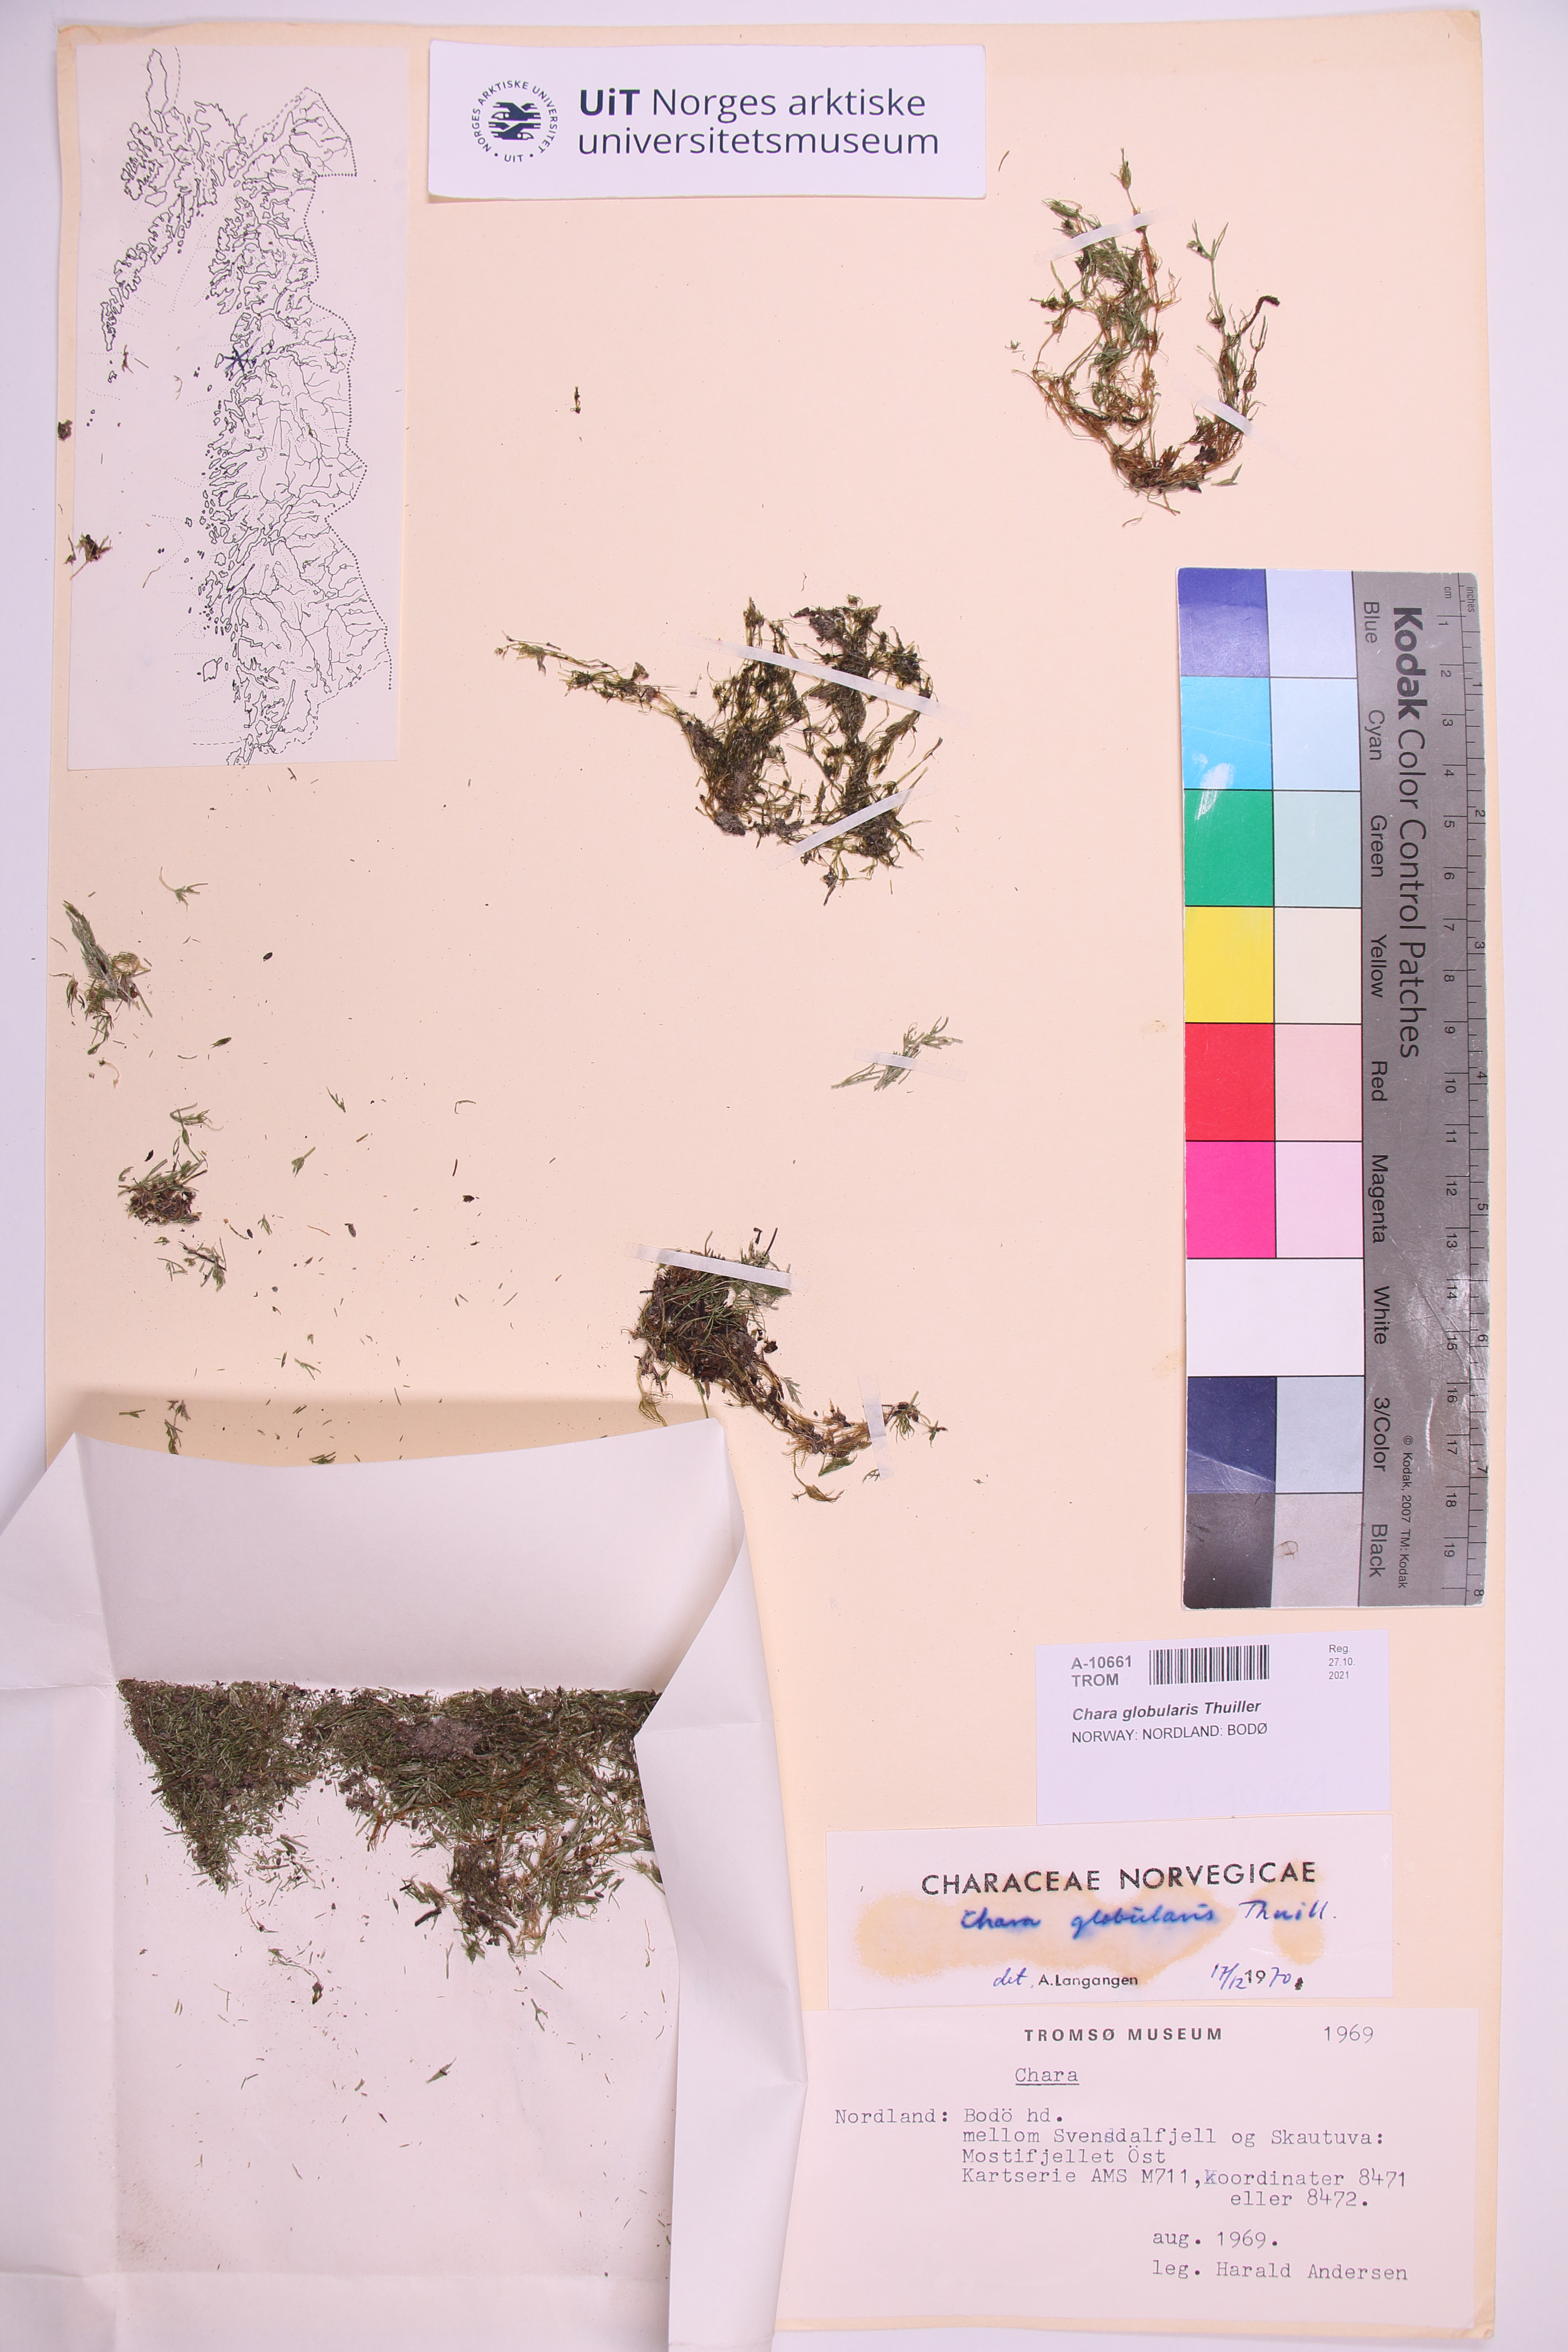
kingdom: Plantae
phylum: Charophyta
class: Charophyceae
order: Charales
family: Characeae
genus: Chara
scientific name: Chara globularis
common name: Fragile stonewort
